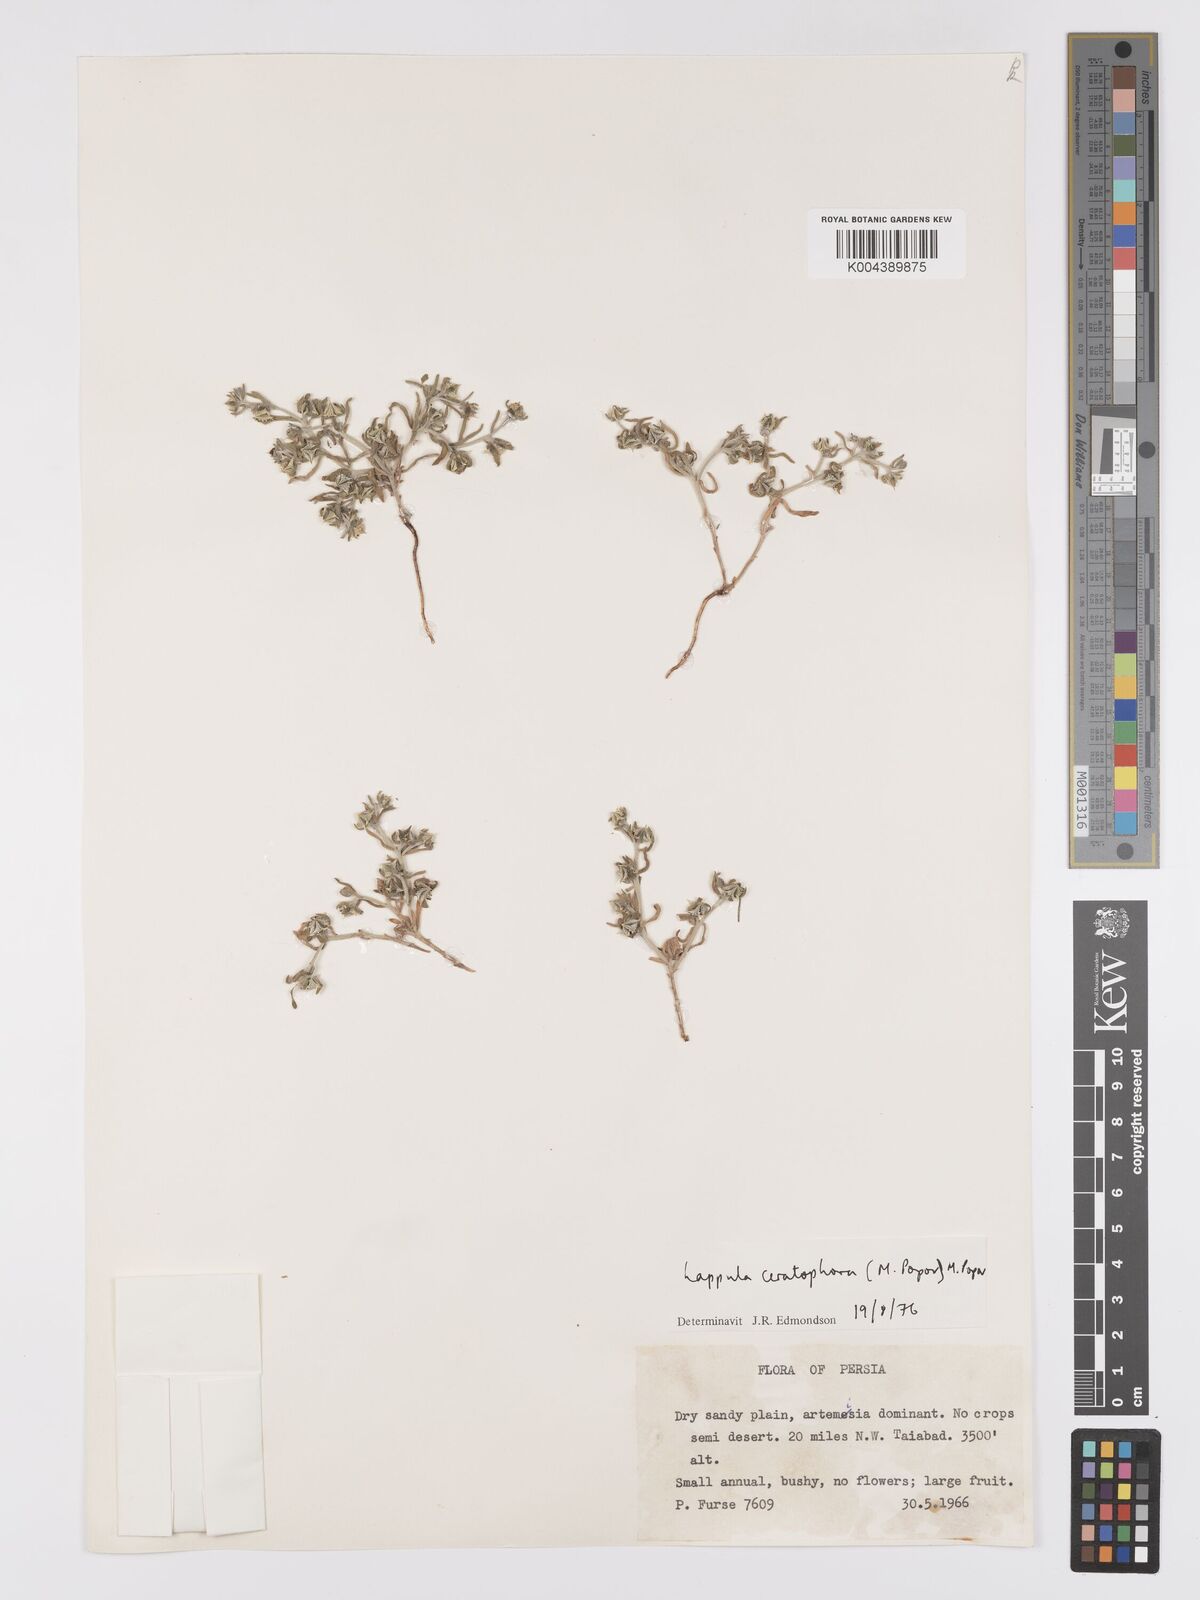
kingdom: Plantae
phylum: Tracheophyta
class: Magnoliopsida
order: Boraginales
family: Boraginaceae
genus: Lappula
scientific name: Lappula spinocarpos
